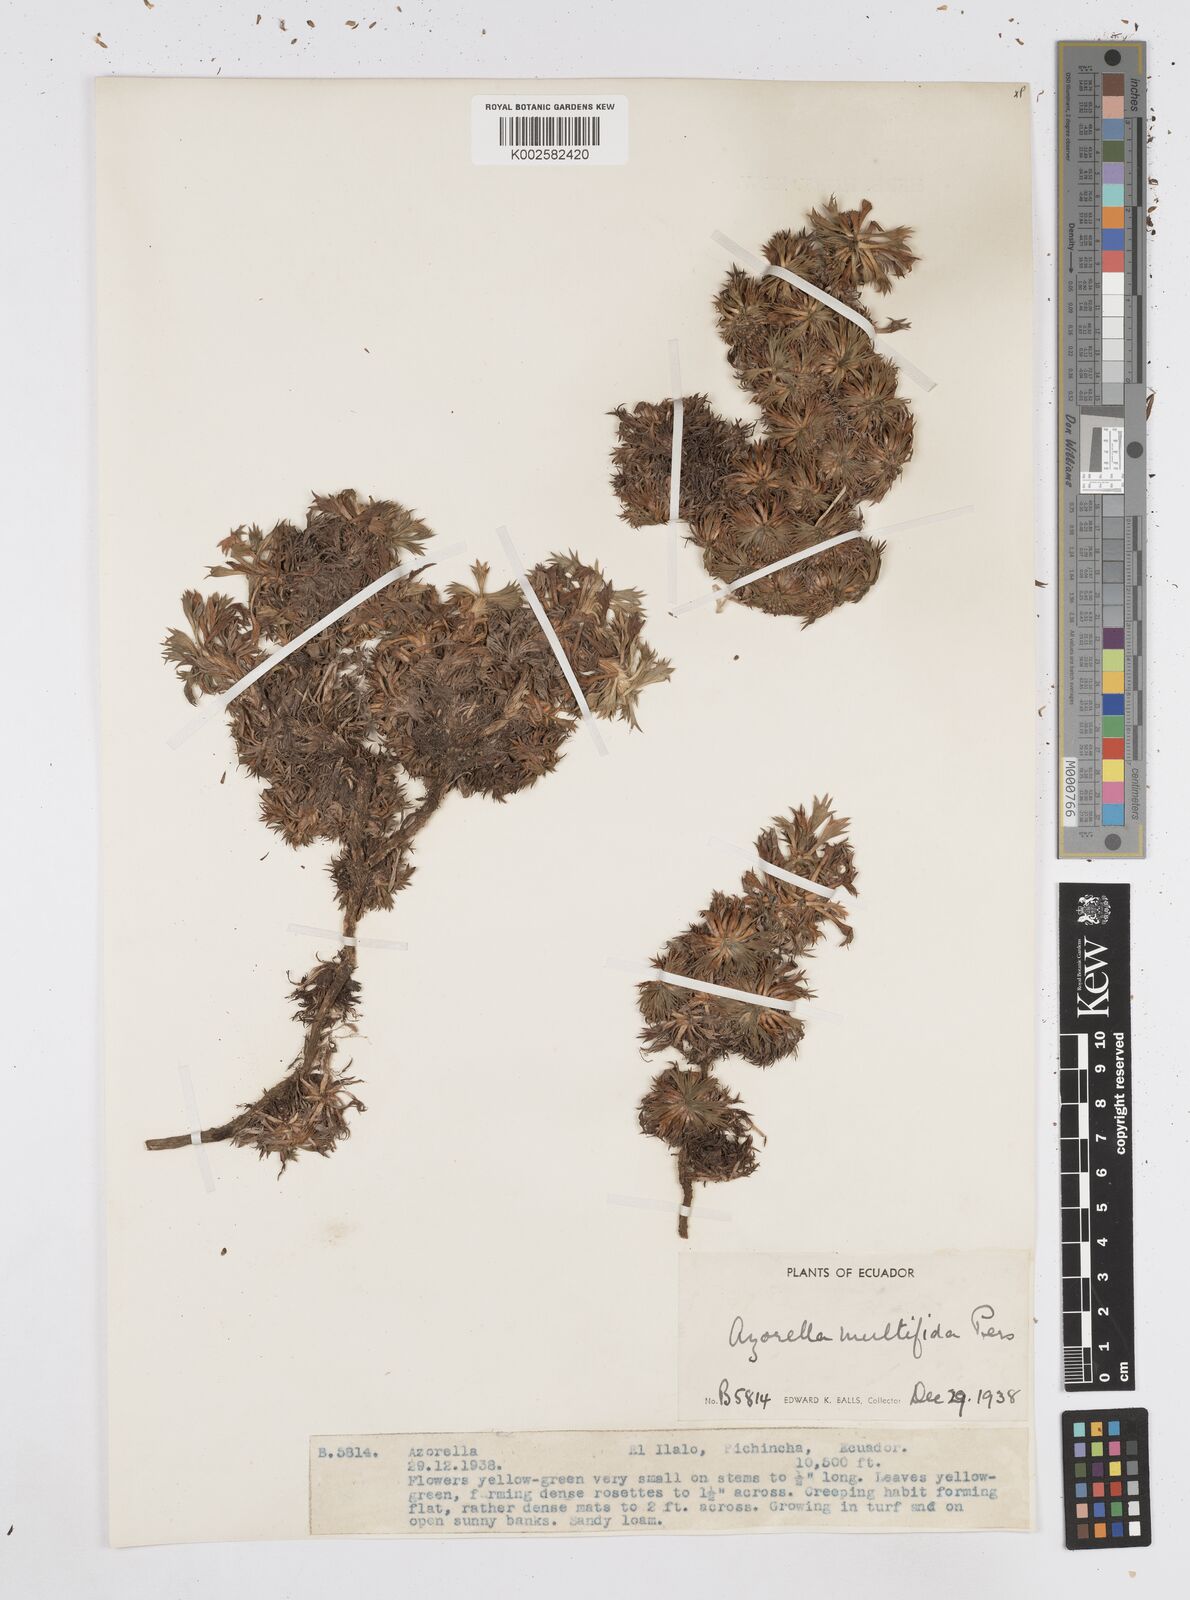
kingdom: Plantae
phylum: Tracheophyta
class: Magnoliopsida
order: Apiales
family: Apiaceae
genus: Azorella
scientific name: Azorella pedunculata
